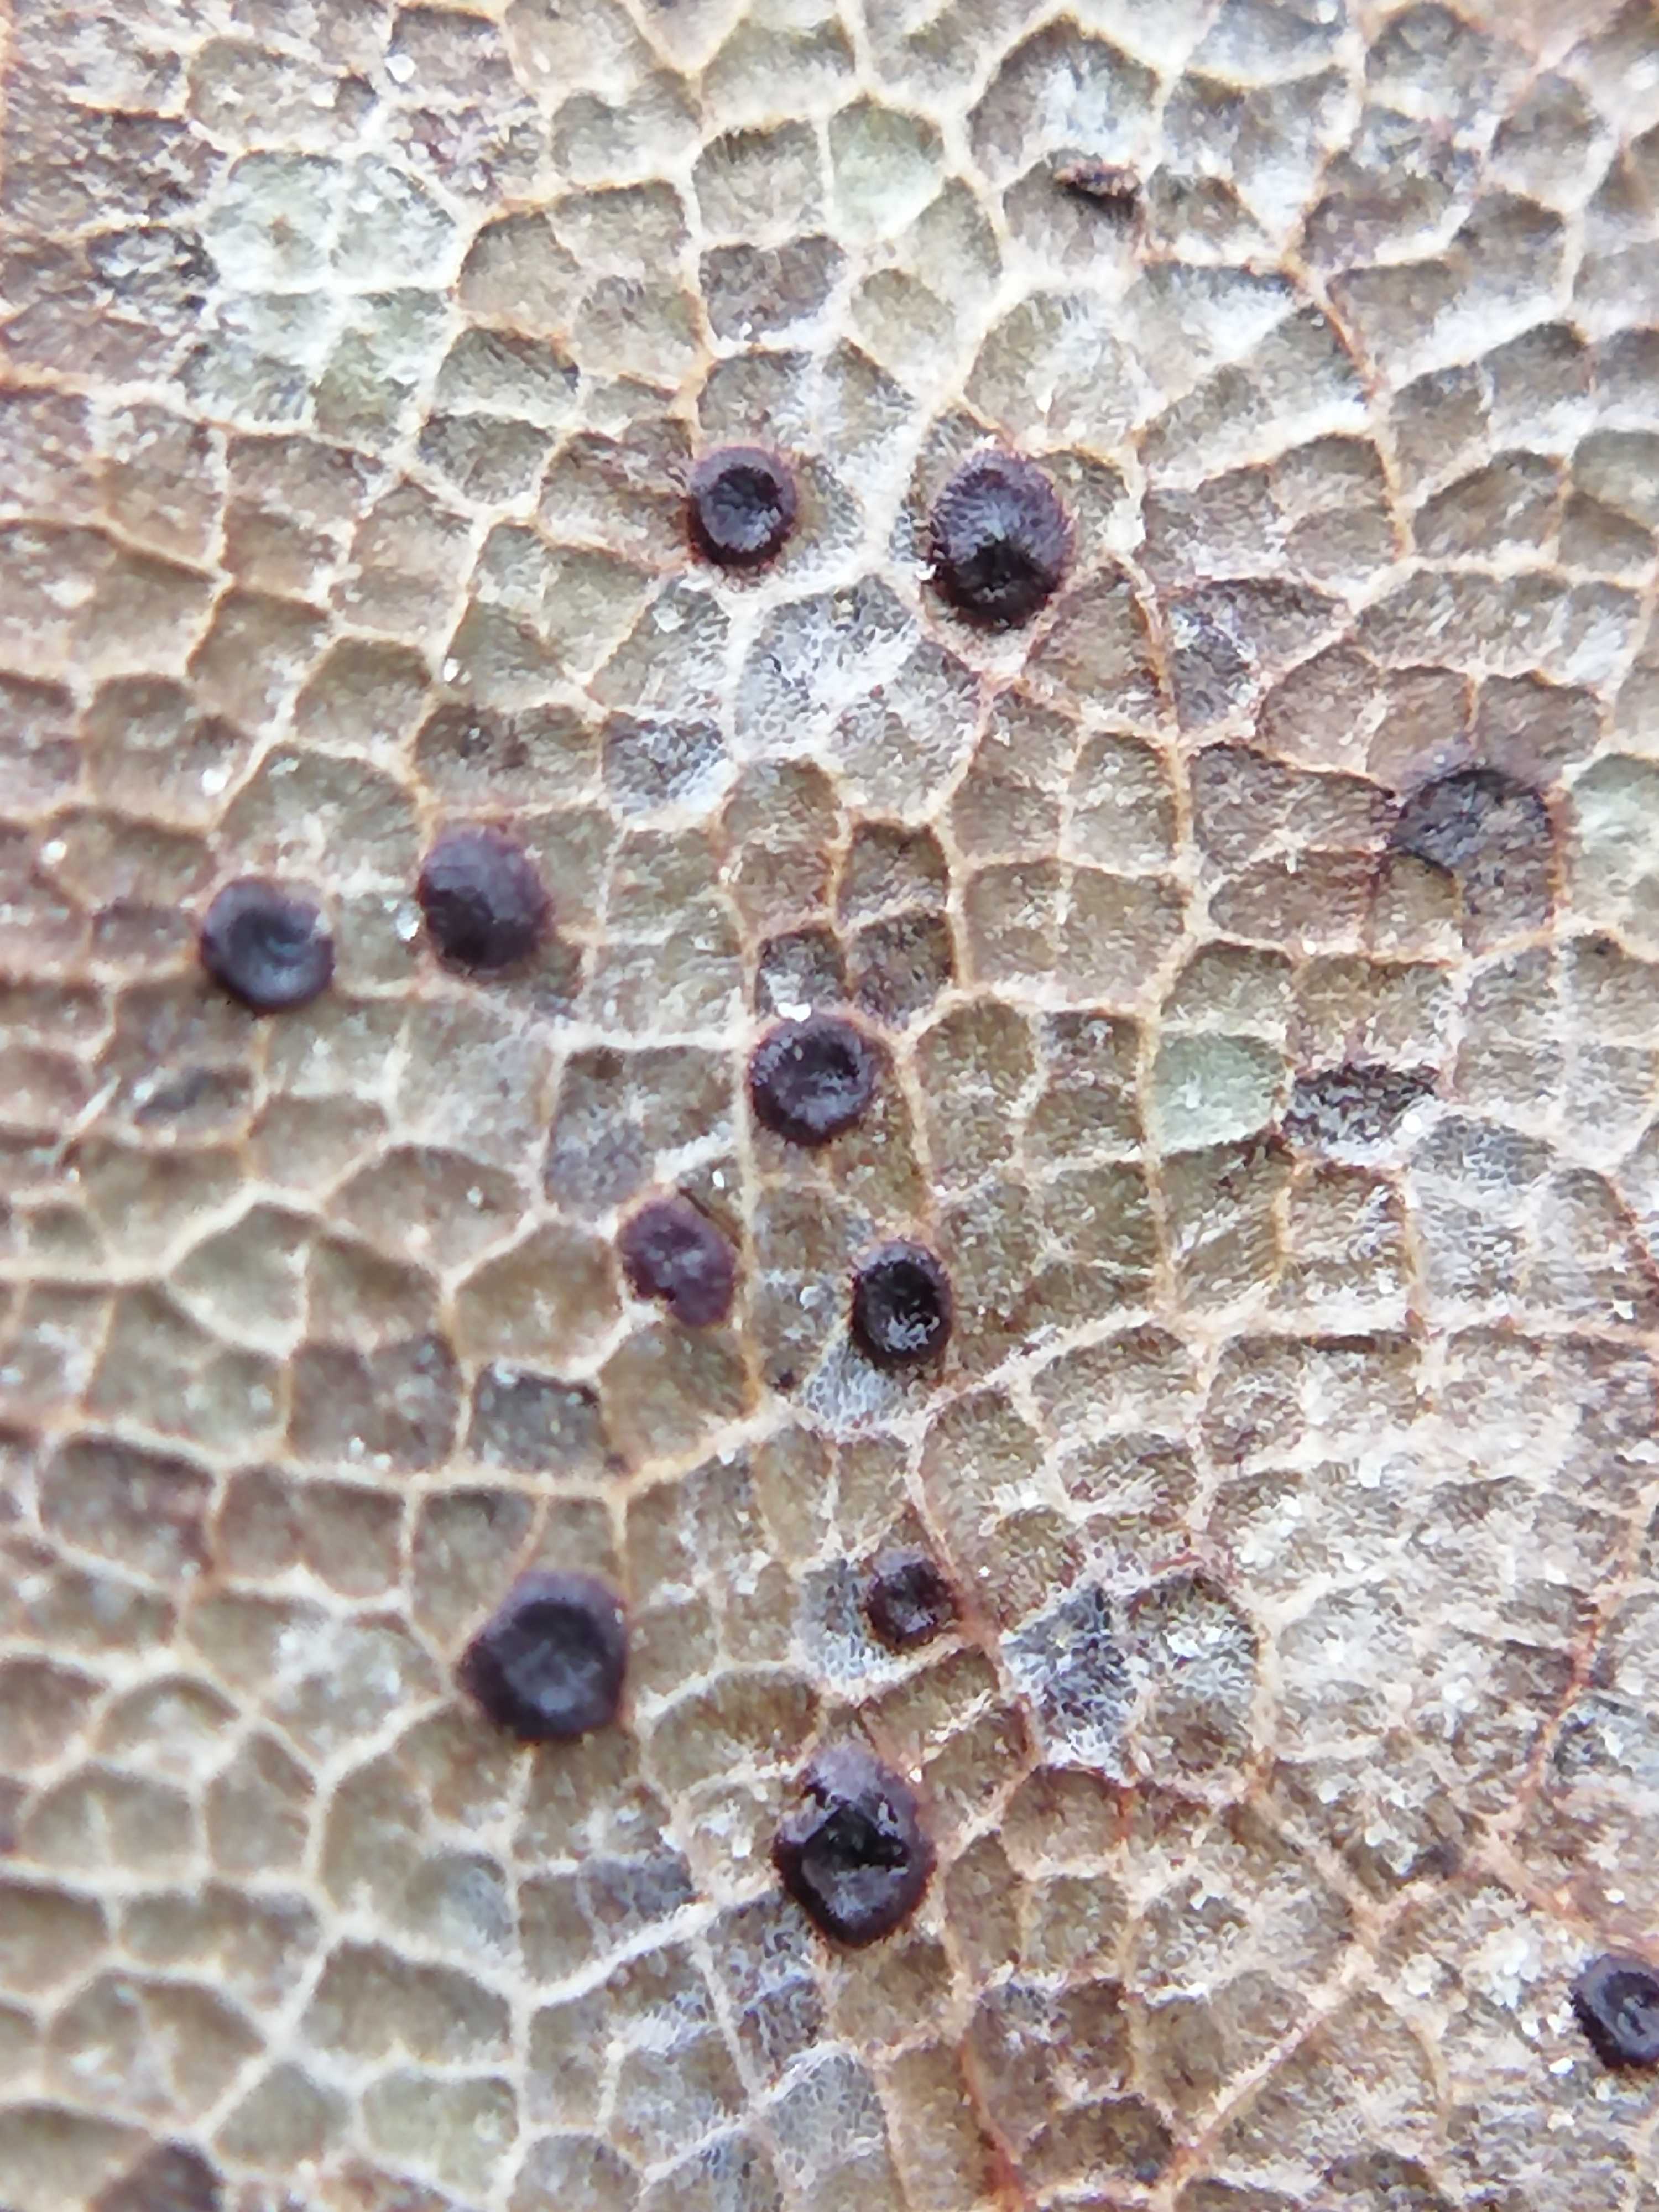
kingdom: Fungi
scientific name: Fungi
